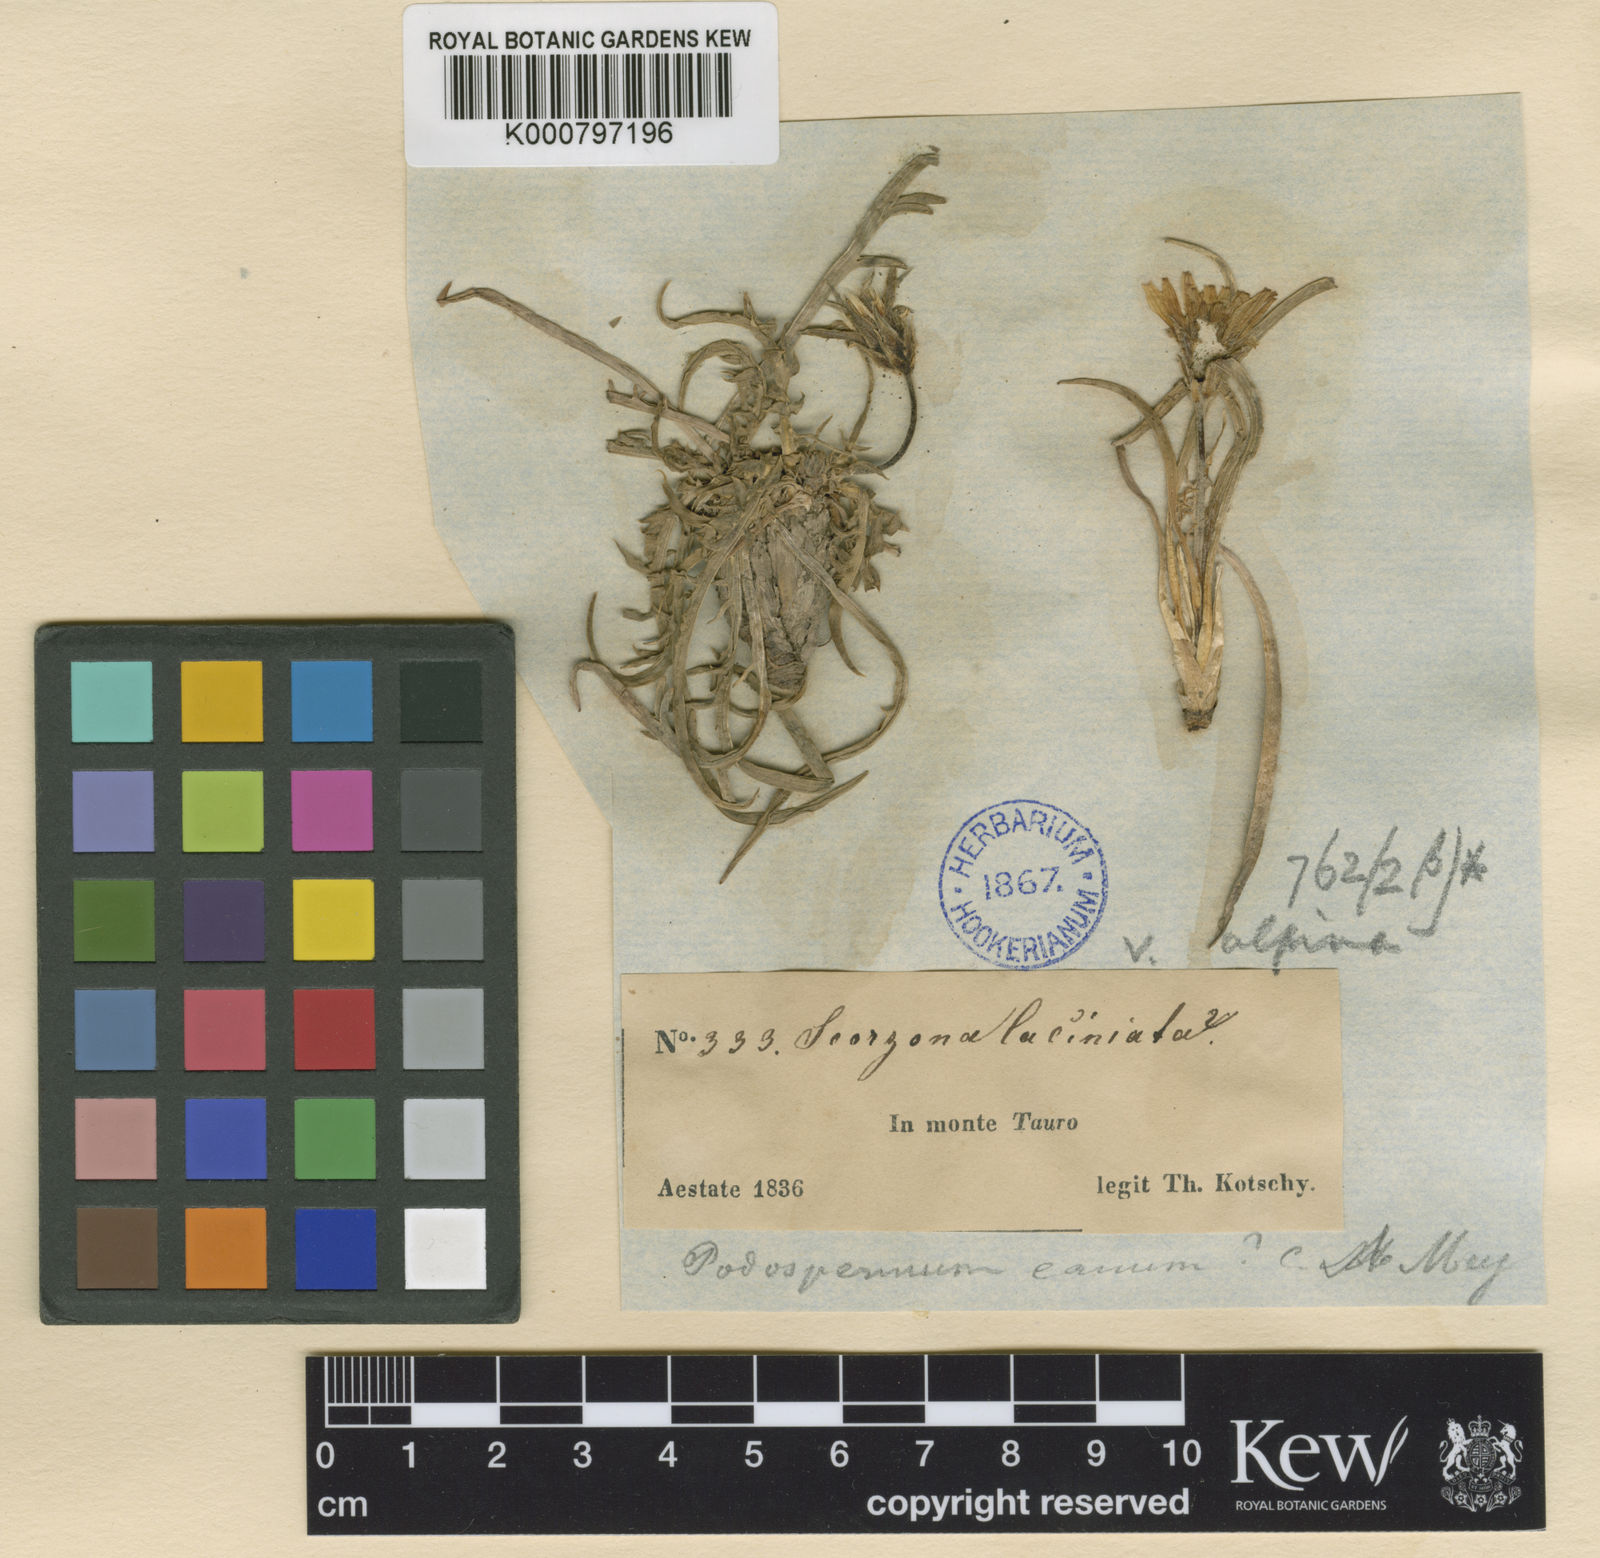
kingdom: Plantae
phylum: Tracheophyta
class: Magnoliopsida
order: Asterales
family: Asteraceae
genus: Scorzonera
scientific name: Scorzonera cana
